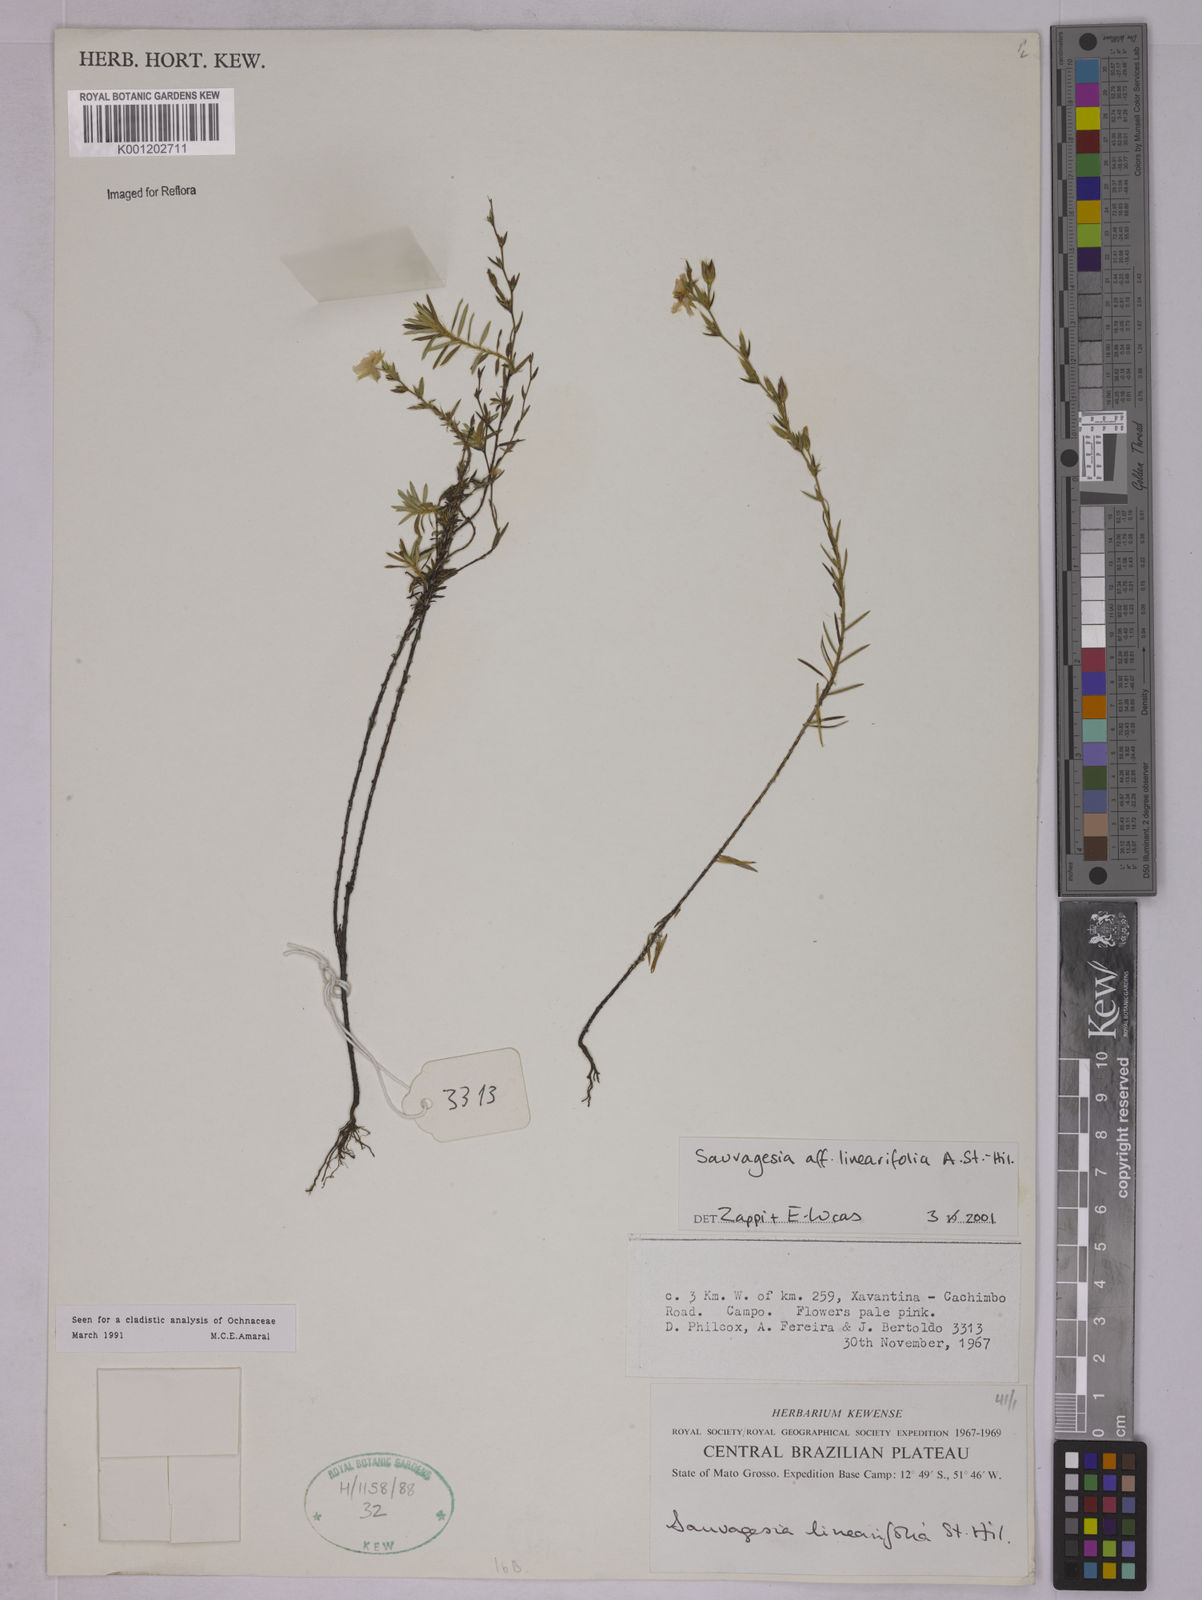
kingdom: Plantae
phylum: Tracheophyta
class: Magnoliopsida
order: Malpighiales
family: Ochnaceae
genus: Sauvagesia
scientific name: Sauvagesia linearifolia
